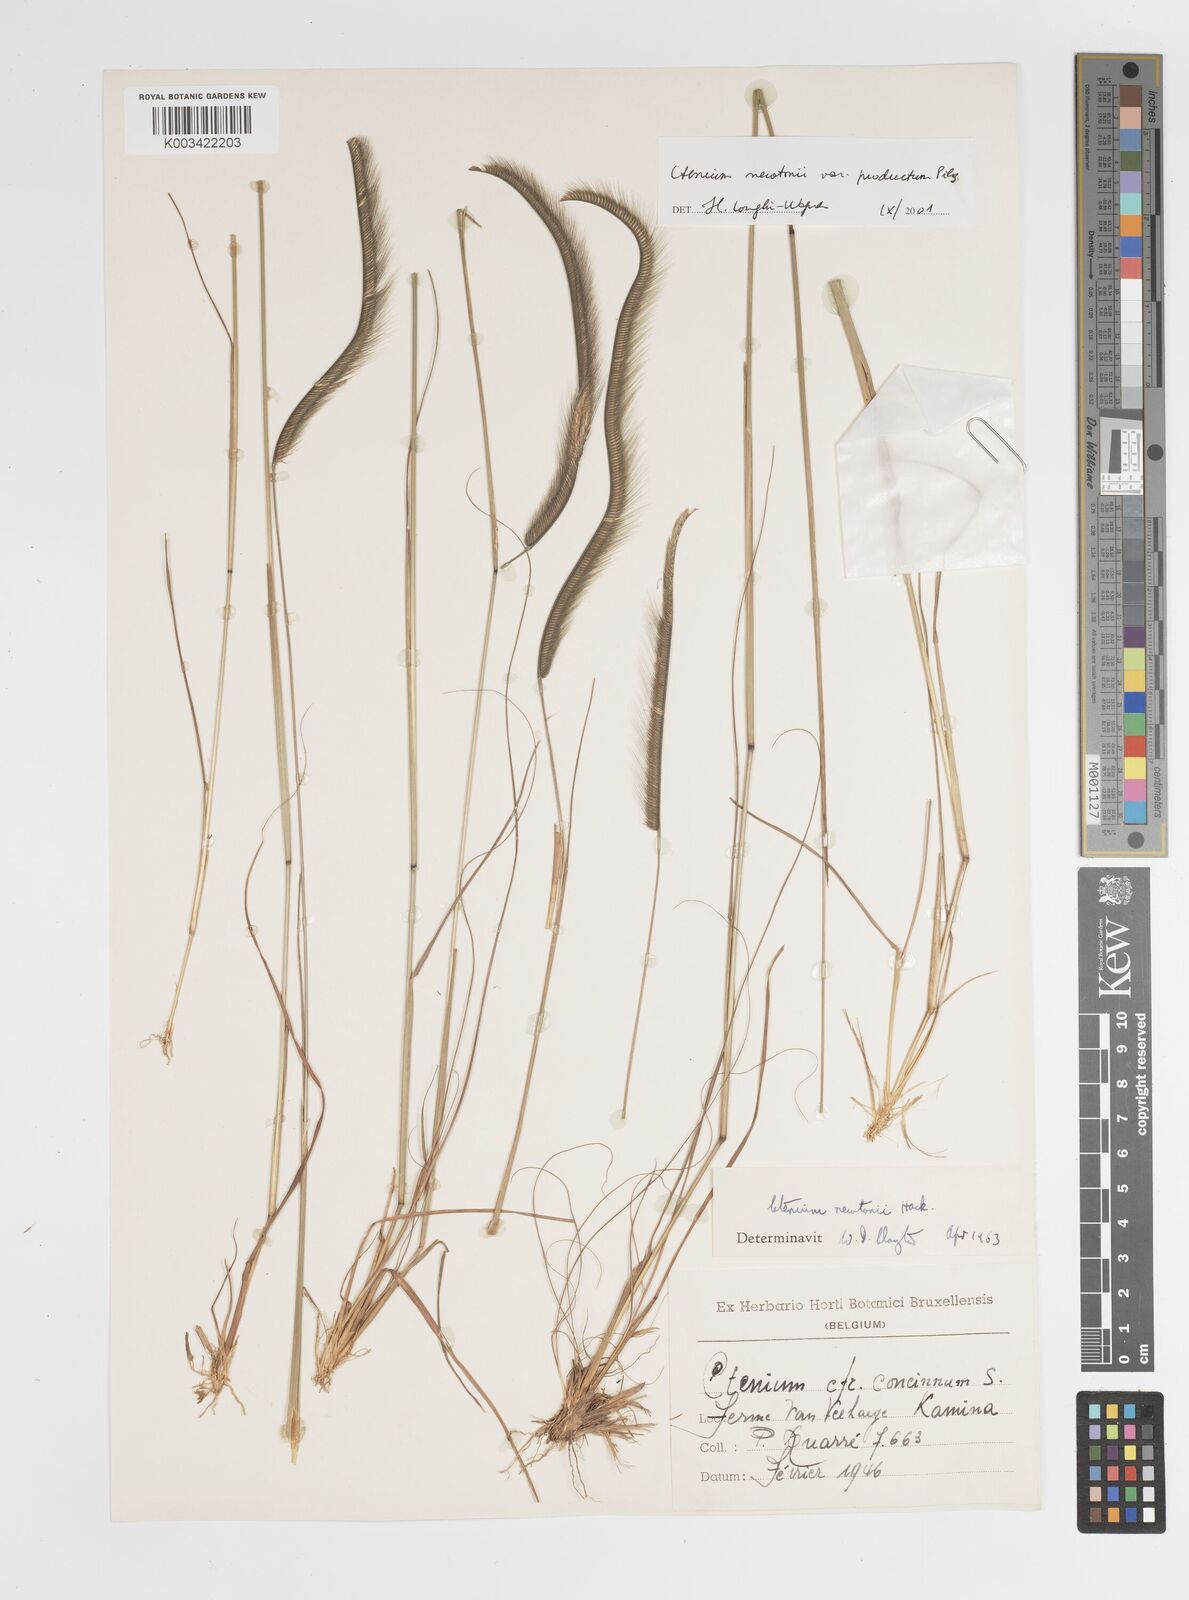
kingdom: Plantae
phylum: Tracheophyta
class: Liliopsida
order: Poales
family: Poaceae
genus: Ctenium
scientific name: Ctenium newtonii
